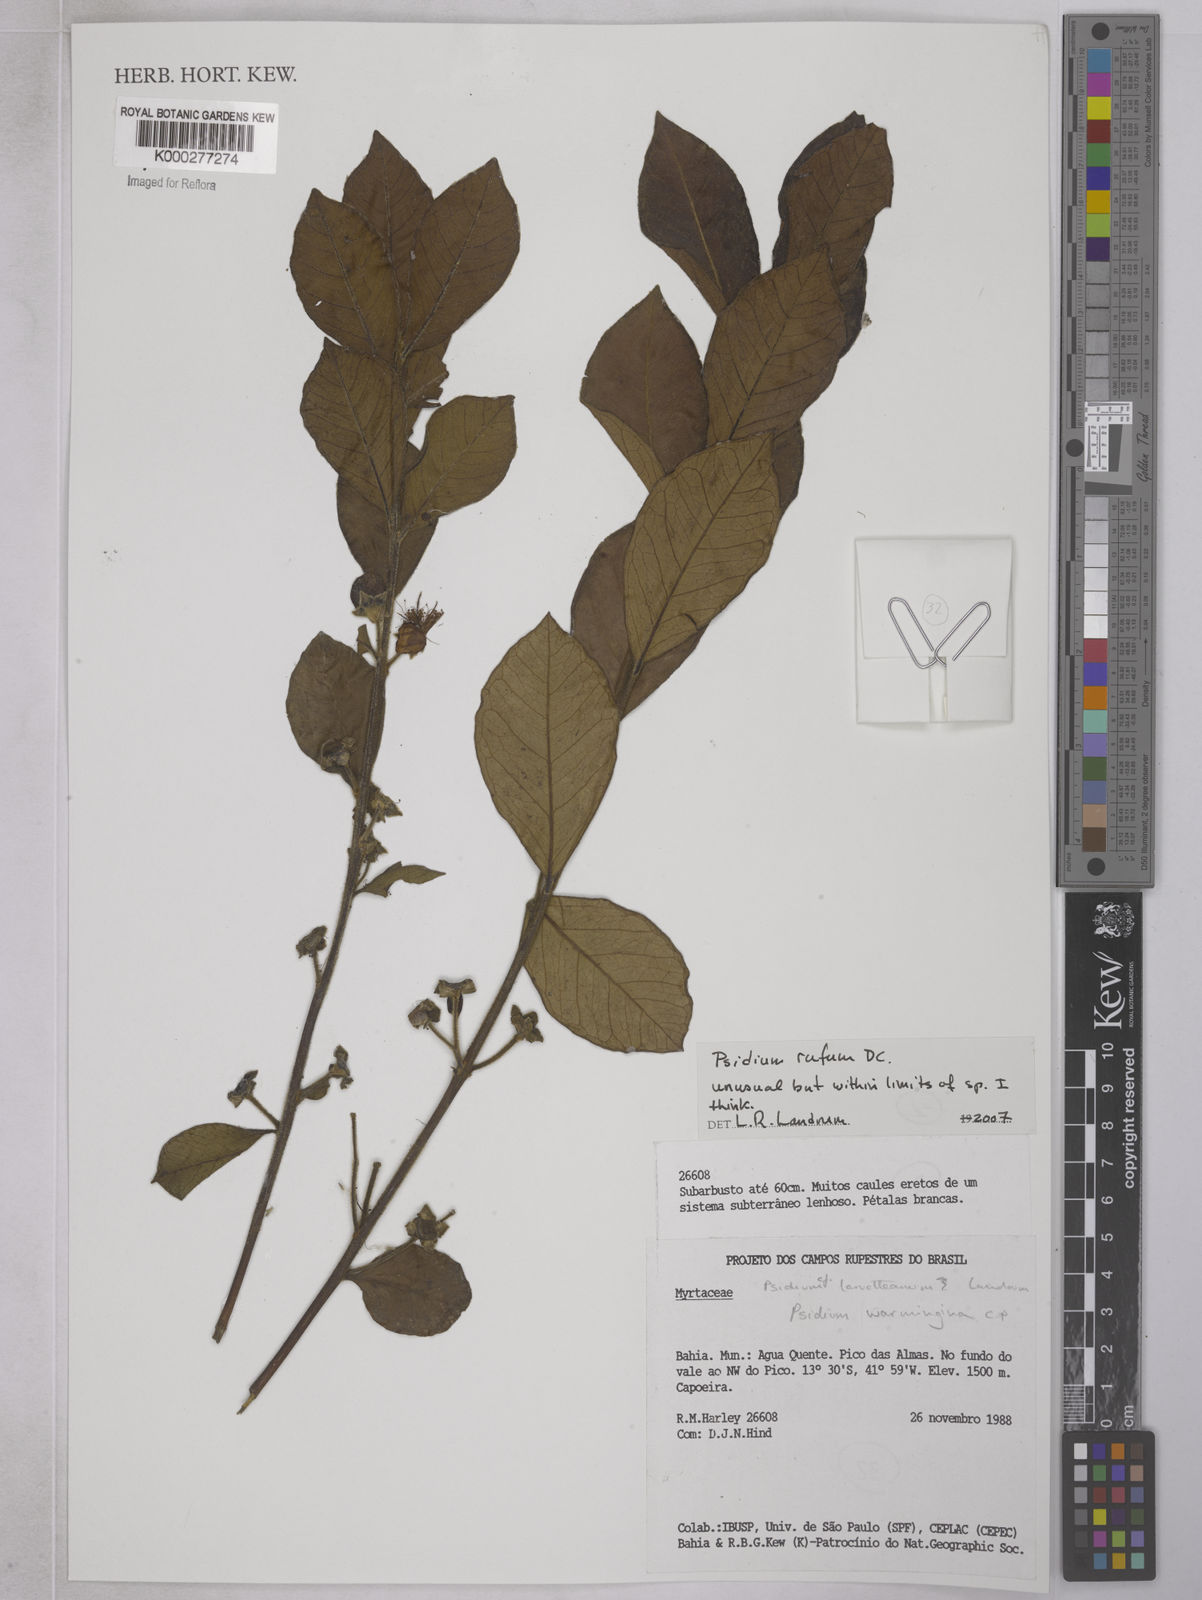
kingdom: Plantae
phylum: Tracheophyta
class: Magnoliopsida
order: Myrtales
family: Myrtaceae
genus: Psidium
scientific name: Psidium rufum
